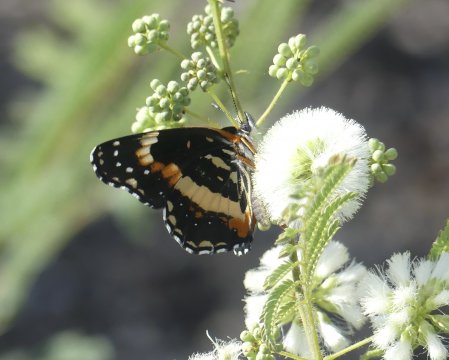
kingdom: Animalia
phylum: Arthropoda
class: Insecta
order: Lepidoptera
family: Nymphalidae
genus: Chlosyne
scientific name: Chlosyne lacinia
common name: Bordered Patch
